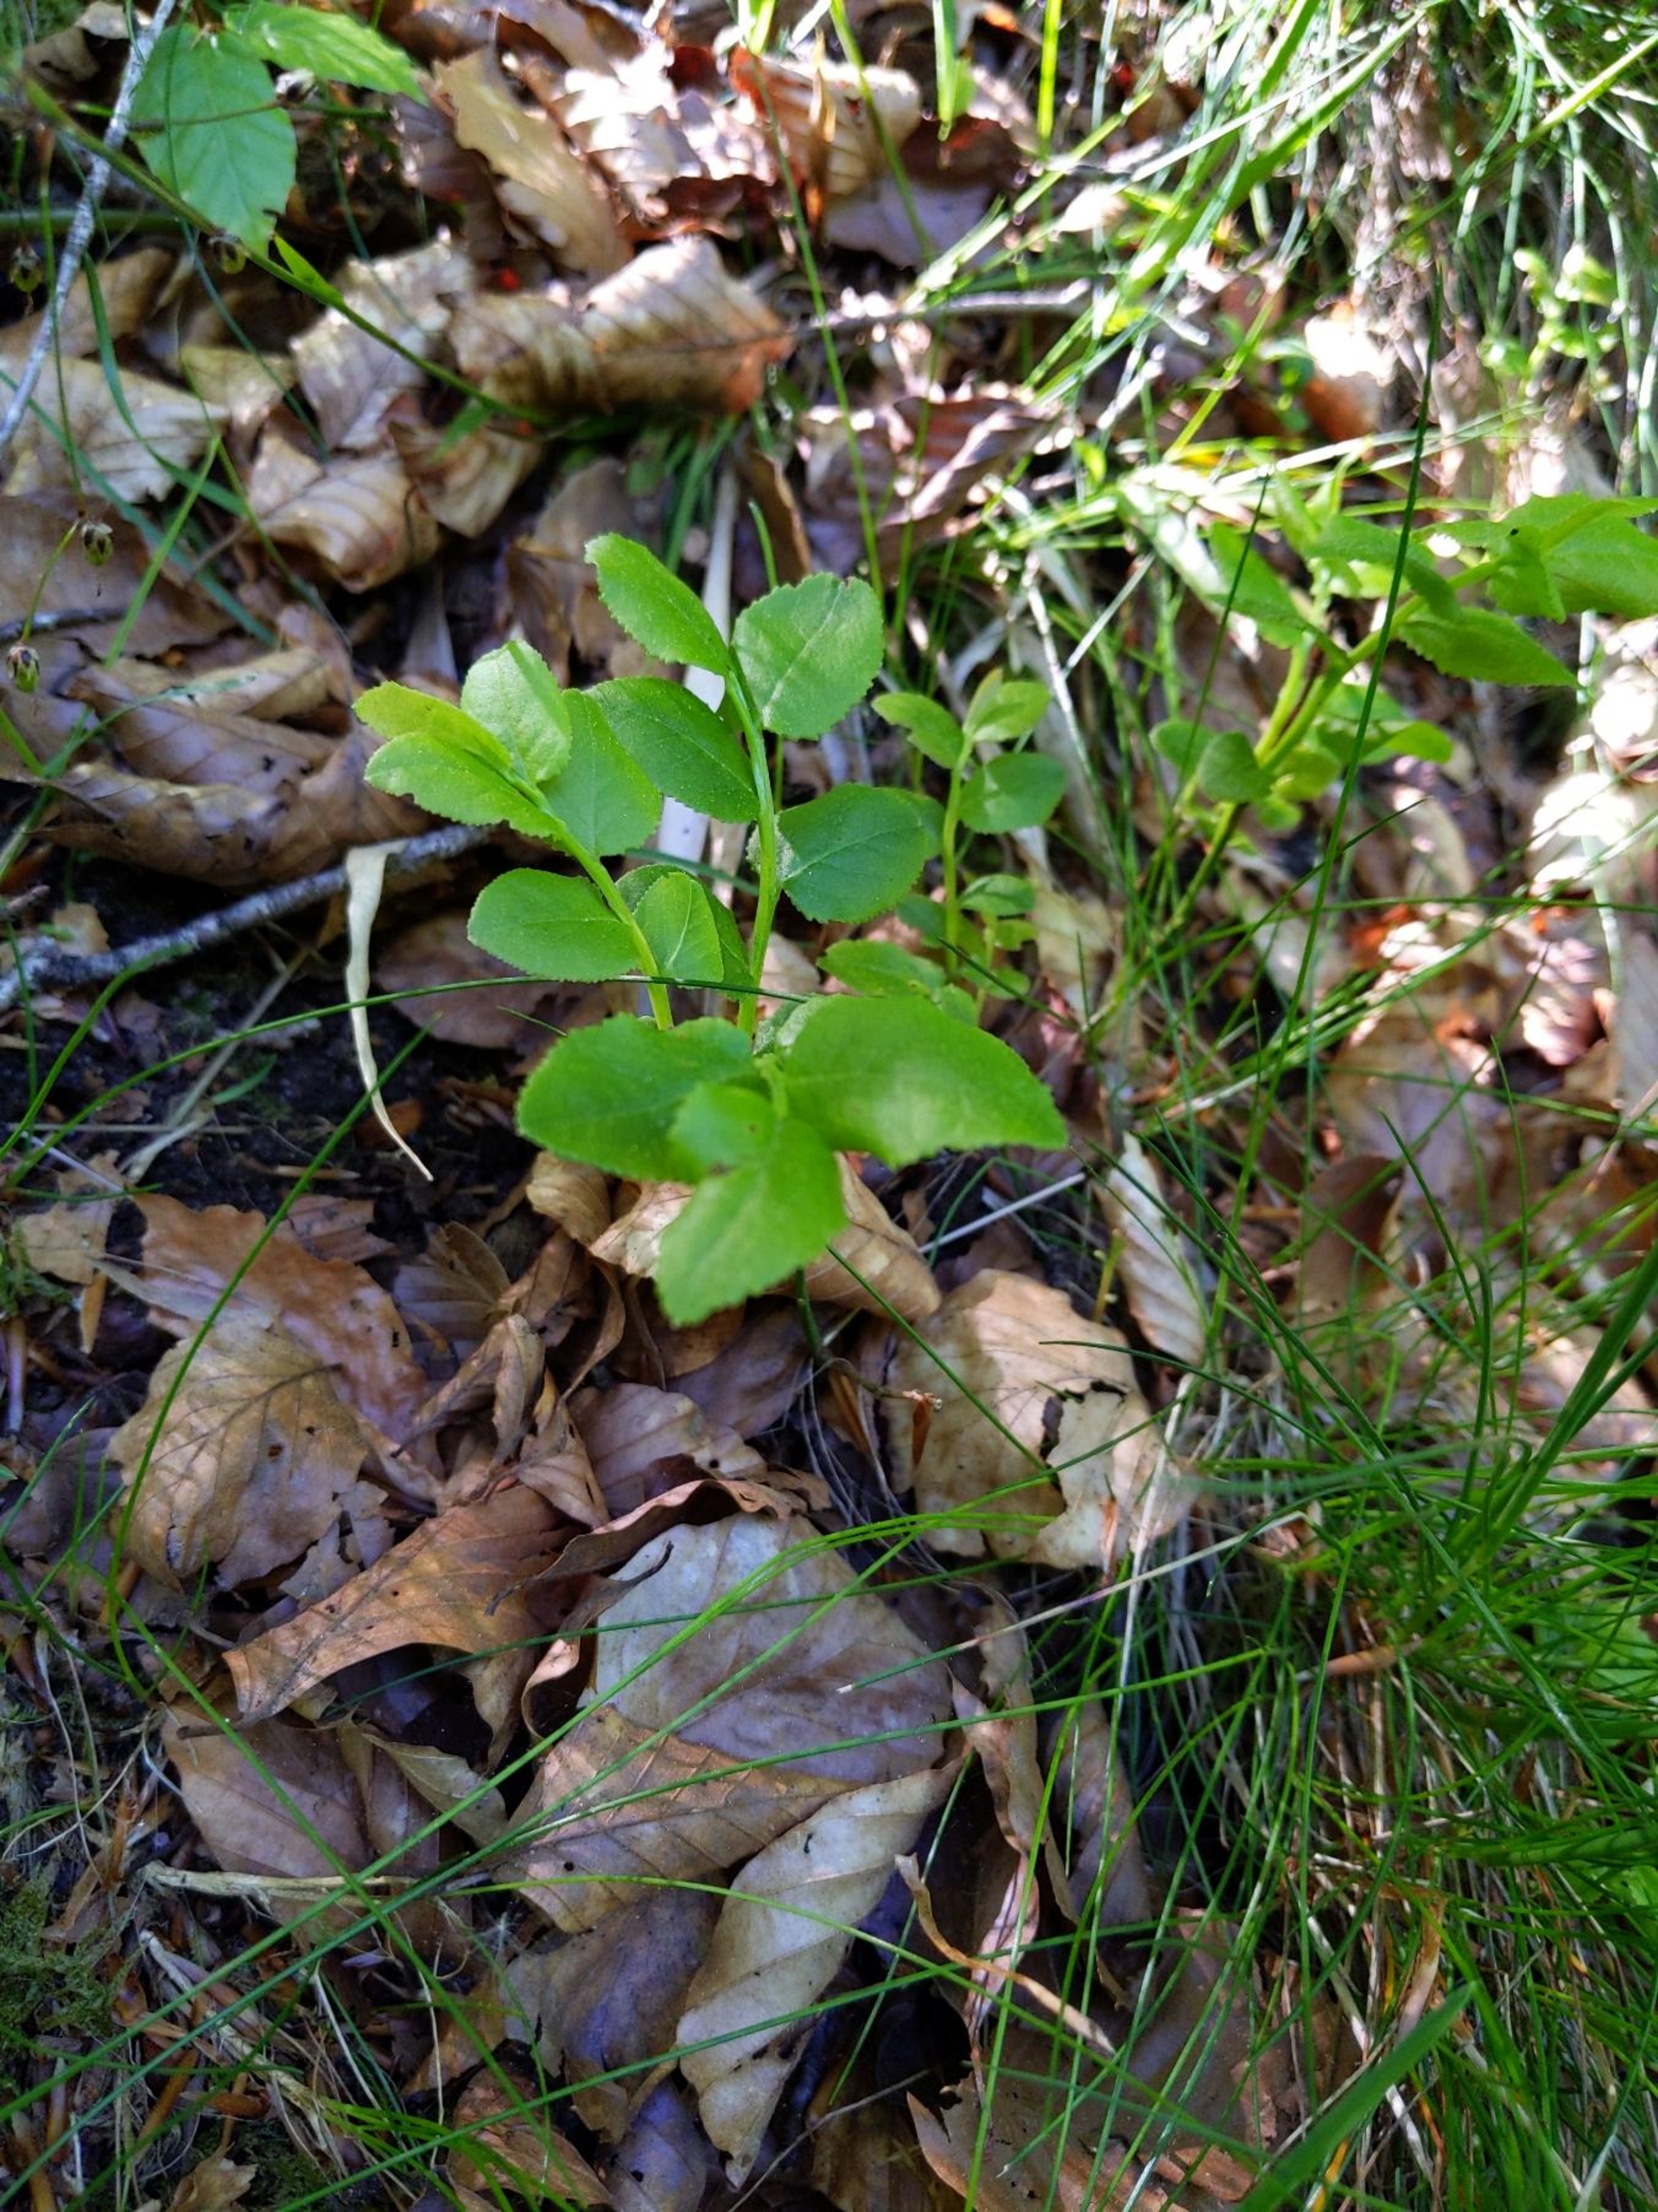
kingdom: Plantae
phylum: Tracheophyta
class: Magnoliopsida
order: Ericales
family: Ericaceae
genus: Vaccinium
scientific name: Vaccinium myrtillus
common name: Blåbær
